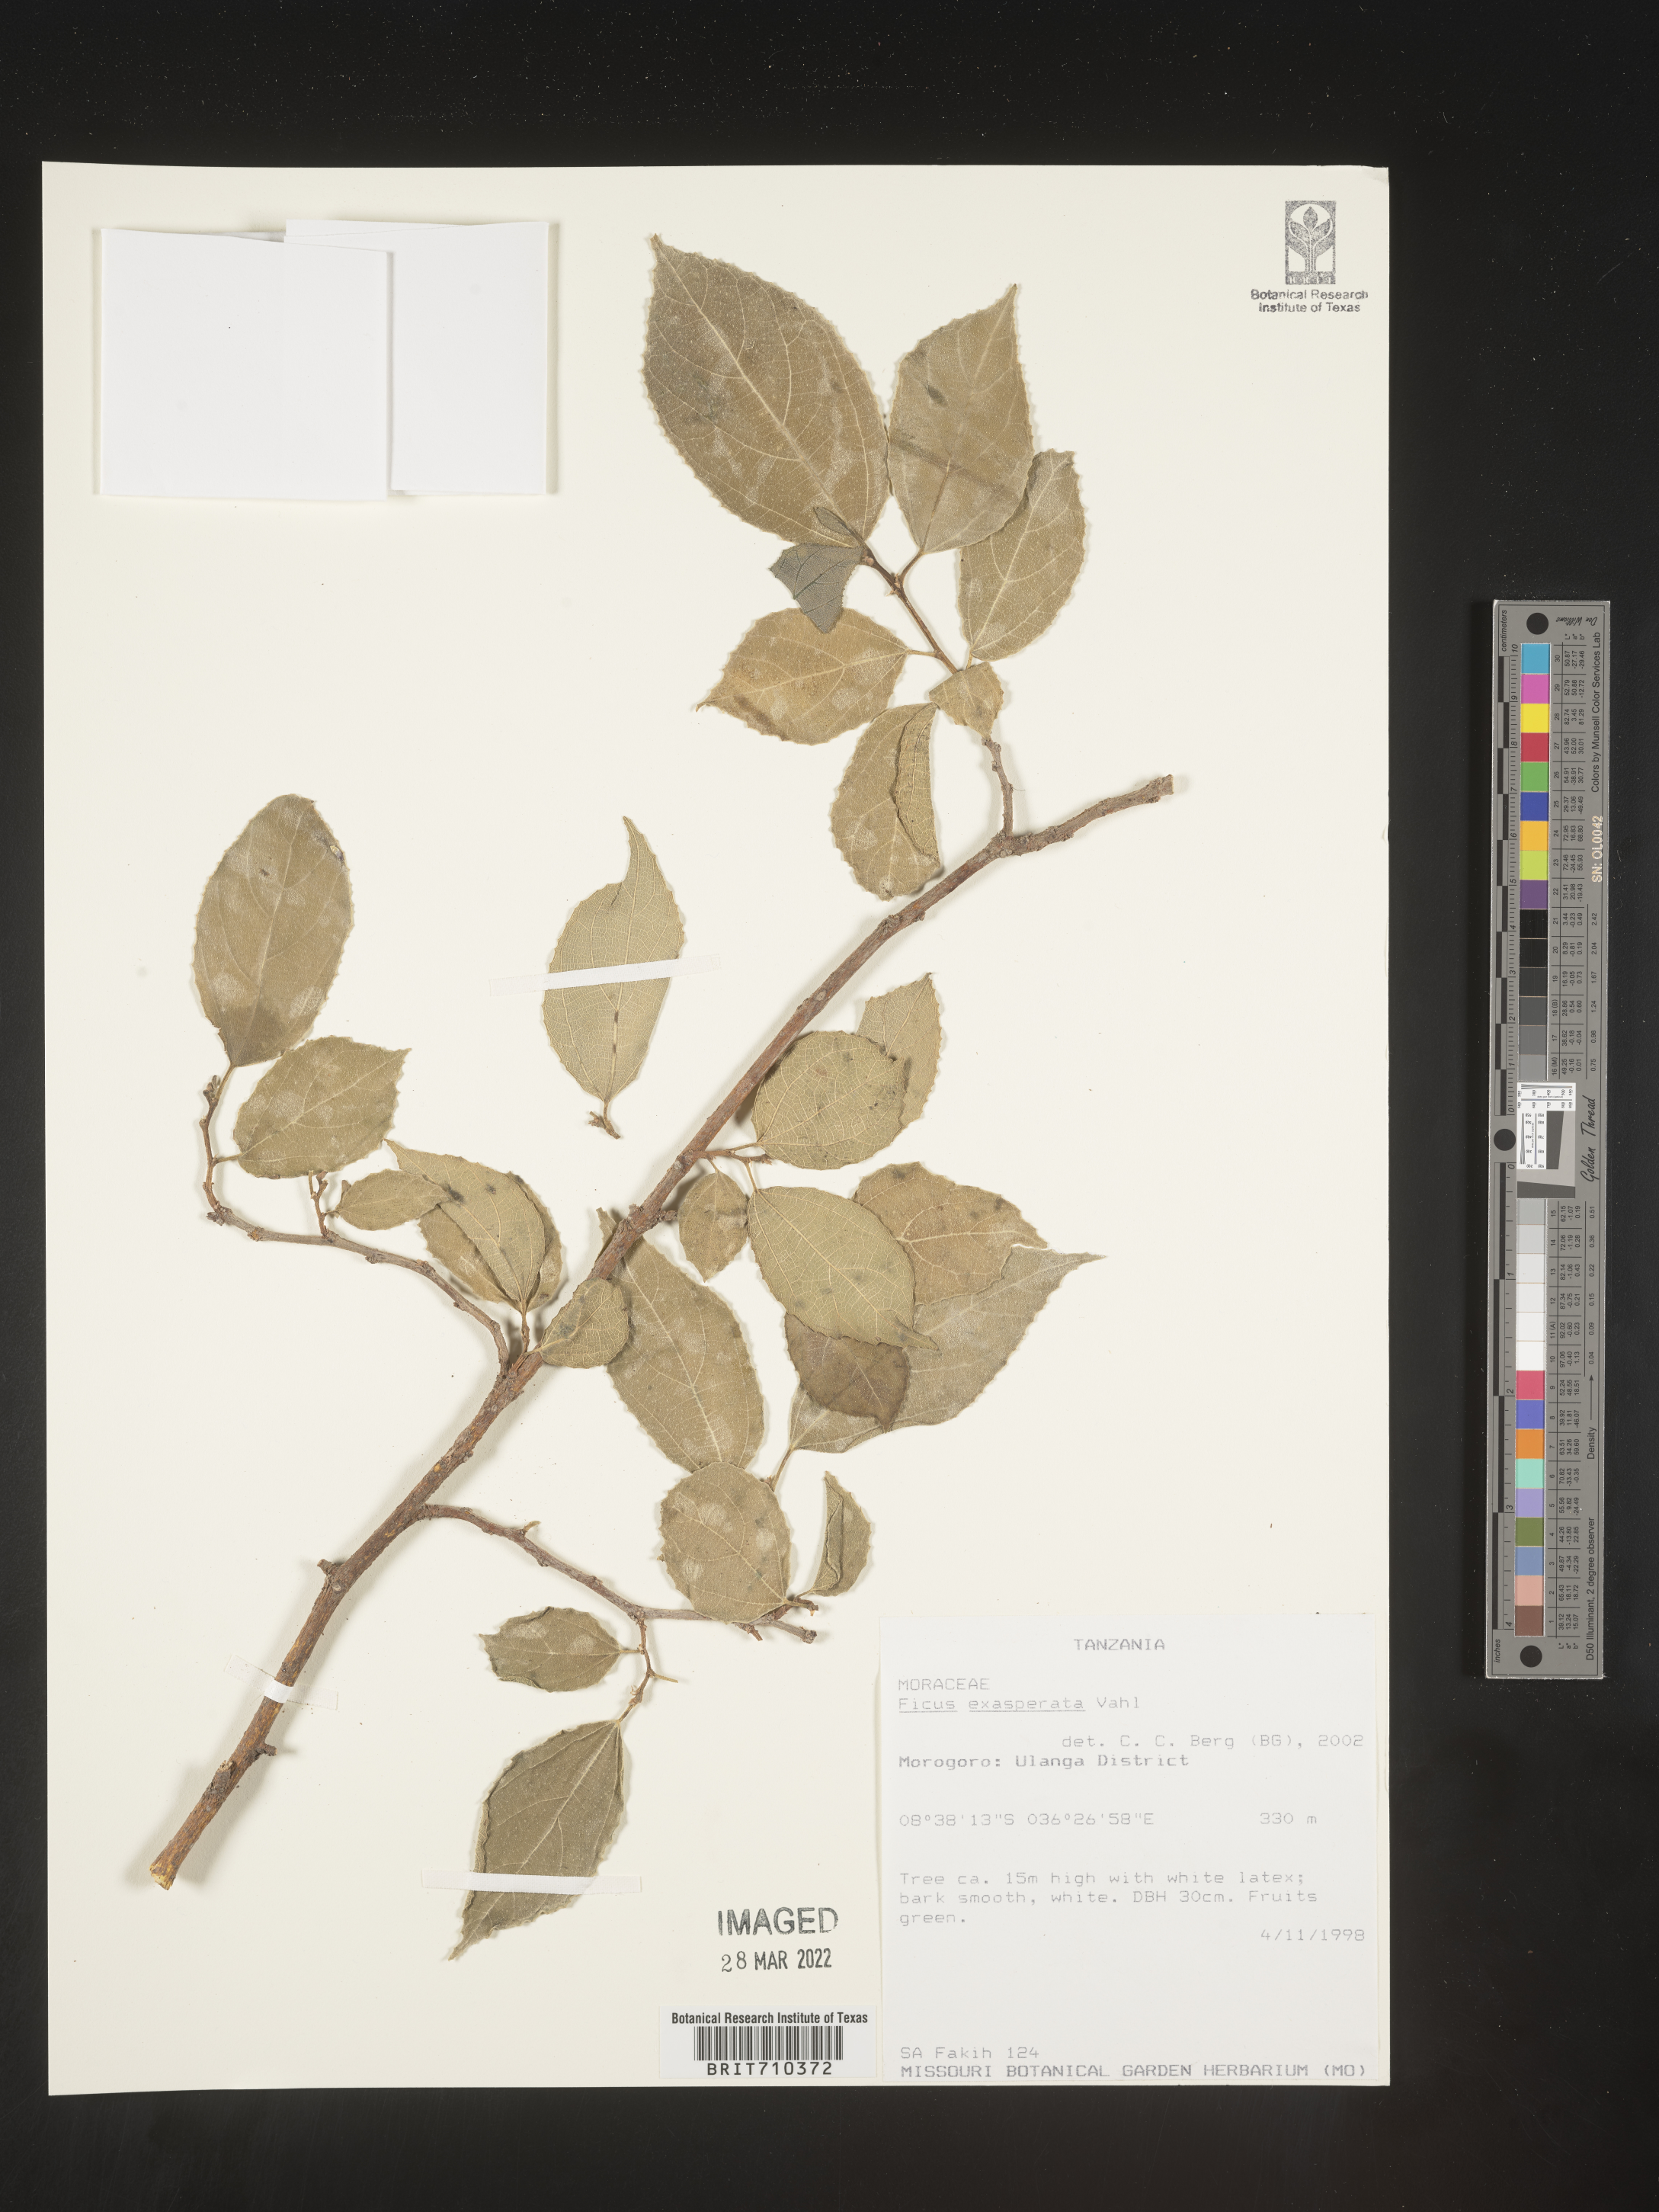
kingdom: Plantae
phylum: Tracheophyta
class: Magnoliopsida
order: Rosales
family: Moraceae
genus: Ficus
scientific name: Ficus
